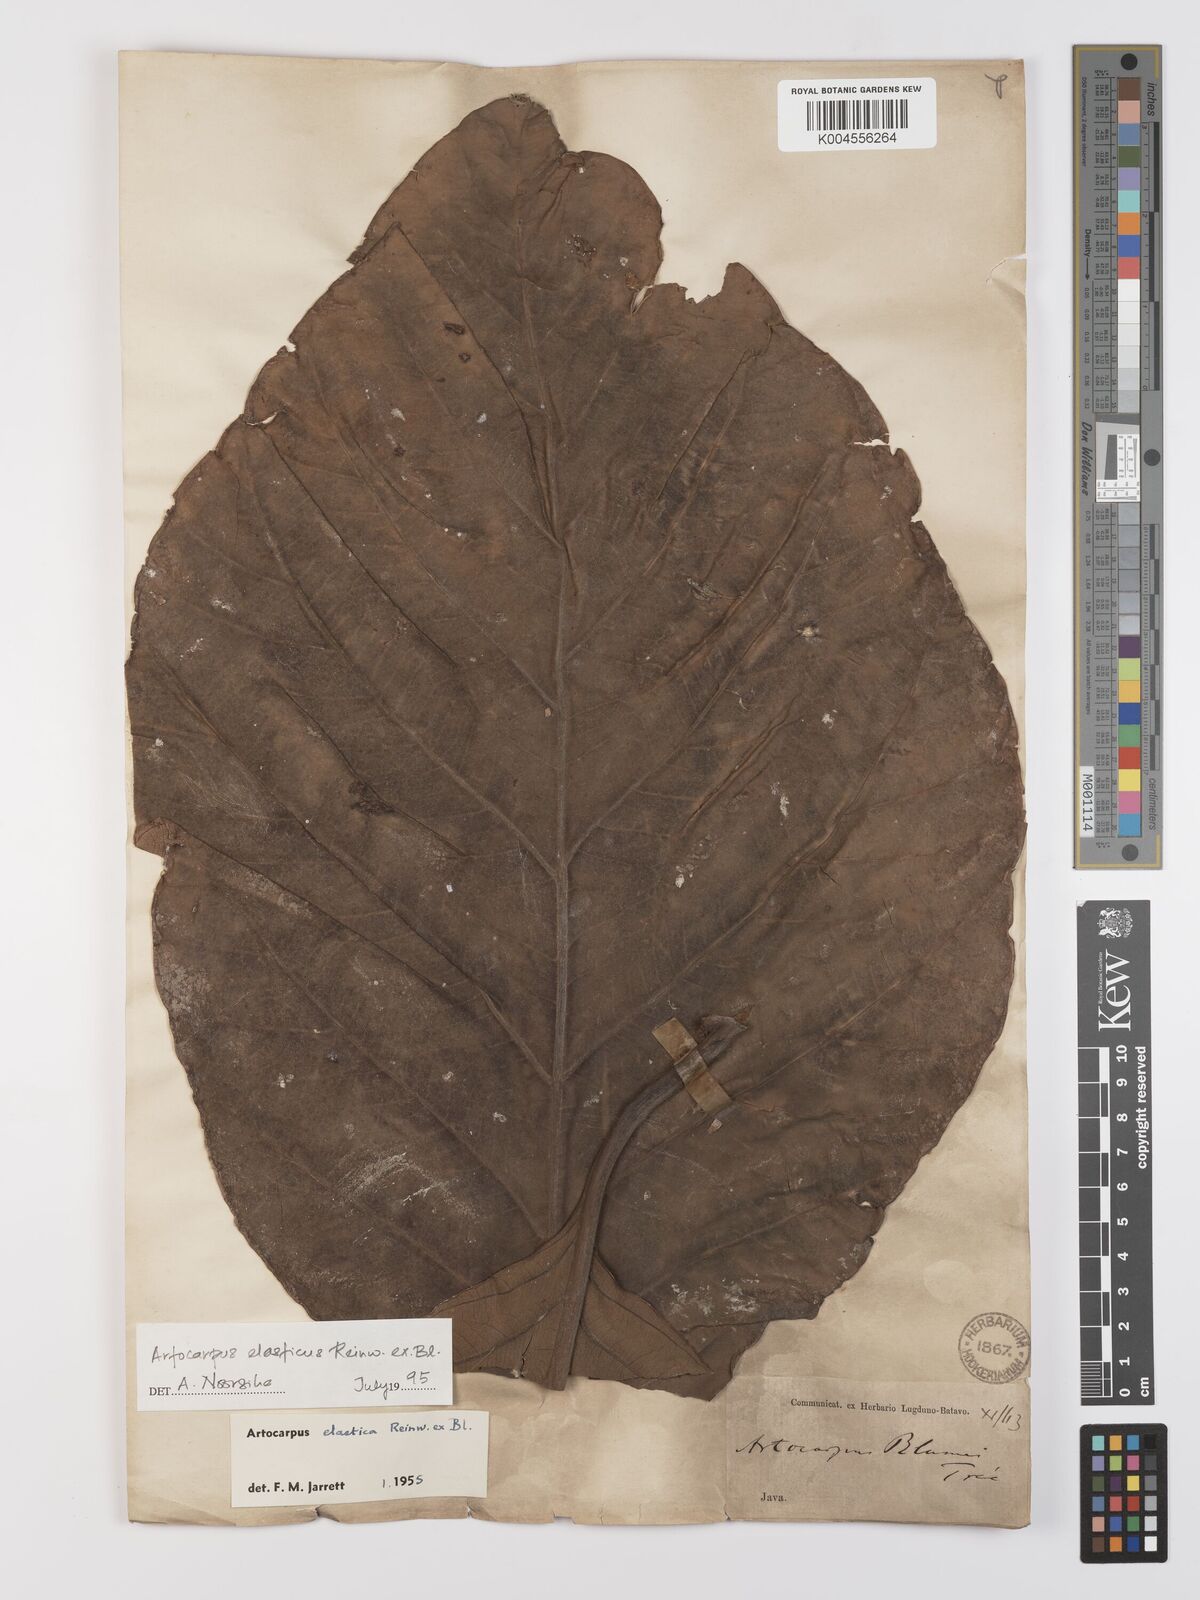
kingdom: Plantae
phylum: Tracheophyta
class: Magnoliopsida
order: Rosales
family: Moraceae
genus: Artocarpus
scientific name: Artocarpus elasticus
